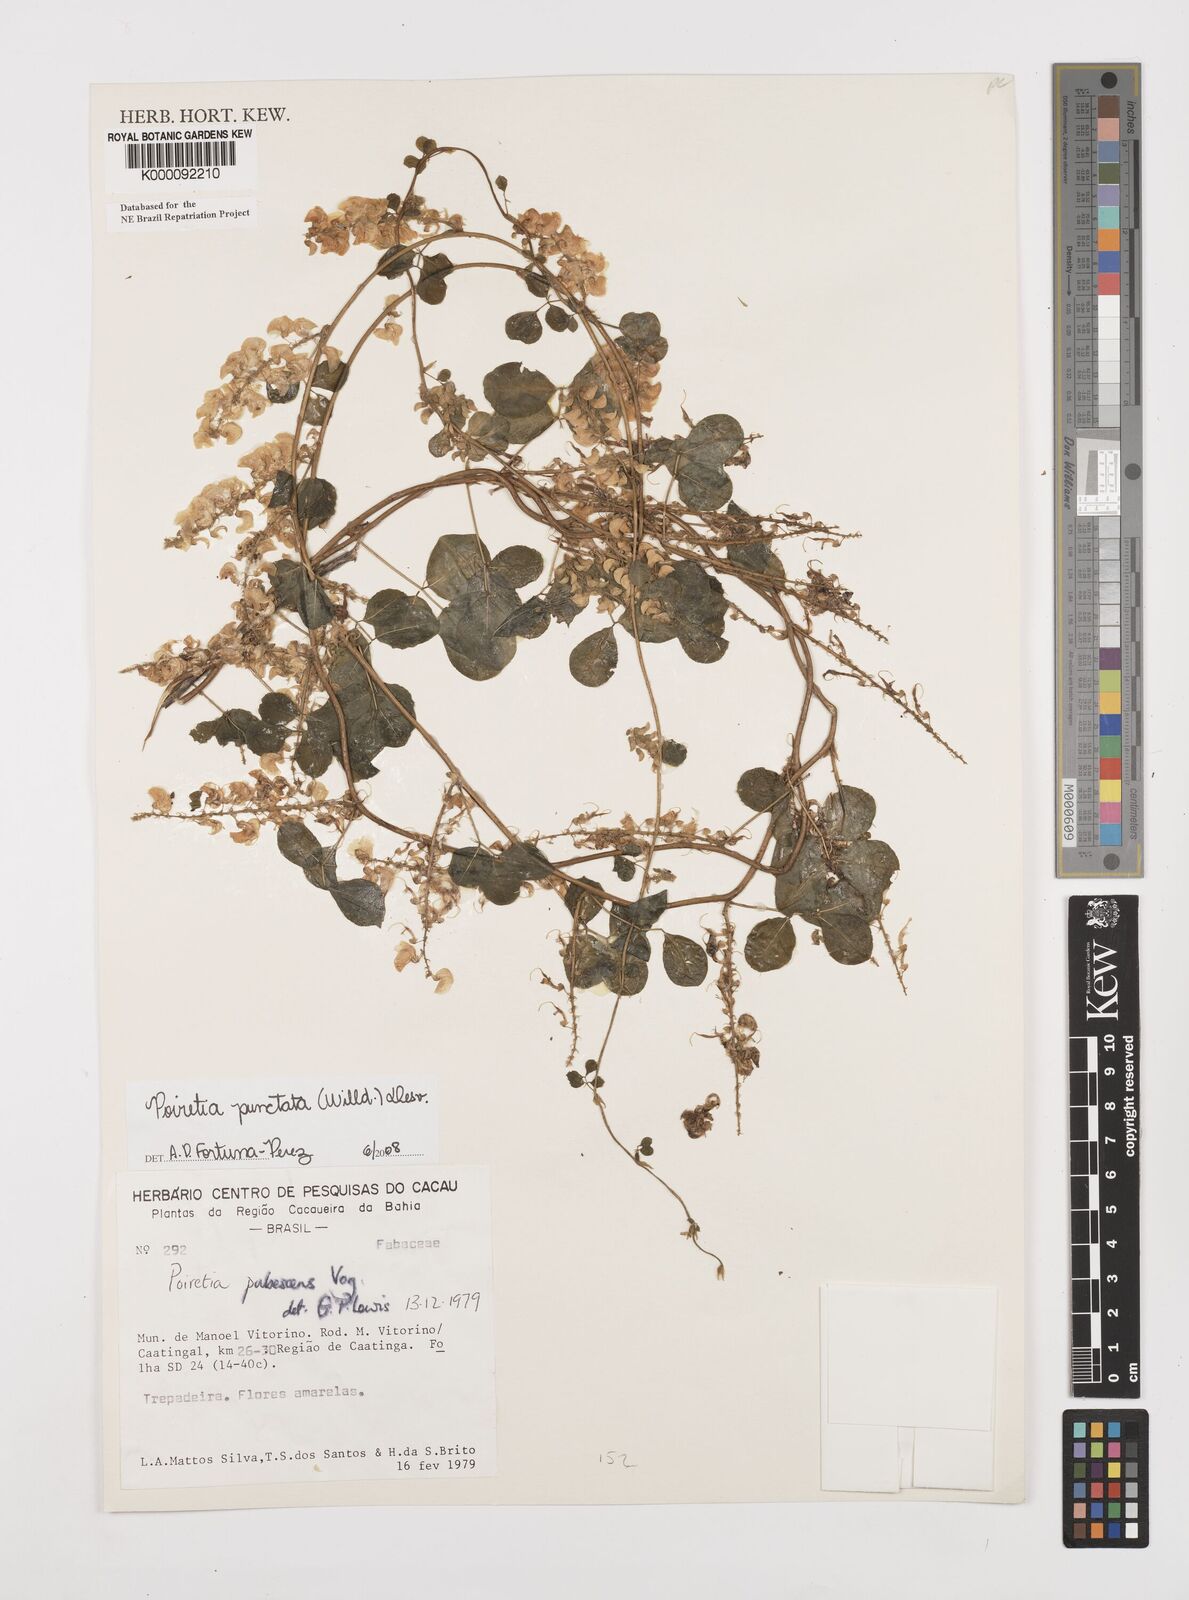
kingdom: Plantae
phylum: Tracheophyta
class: Magnoliopsida
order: Fabales
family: Fabaceae
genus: Poiretia
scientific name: Poiretia punctata
